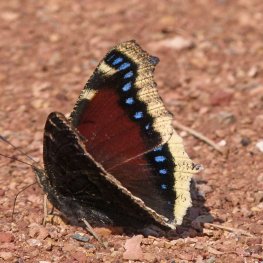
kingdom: Animalia
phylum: Arthropoda
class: Insecta
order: Lepidoptera
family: Nymphalidae
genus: Nymphalis
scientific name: Nymphalis antiopa
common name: Mourning Cloak
